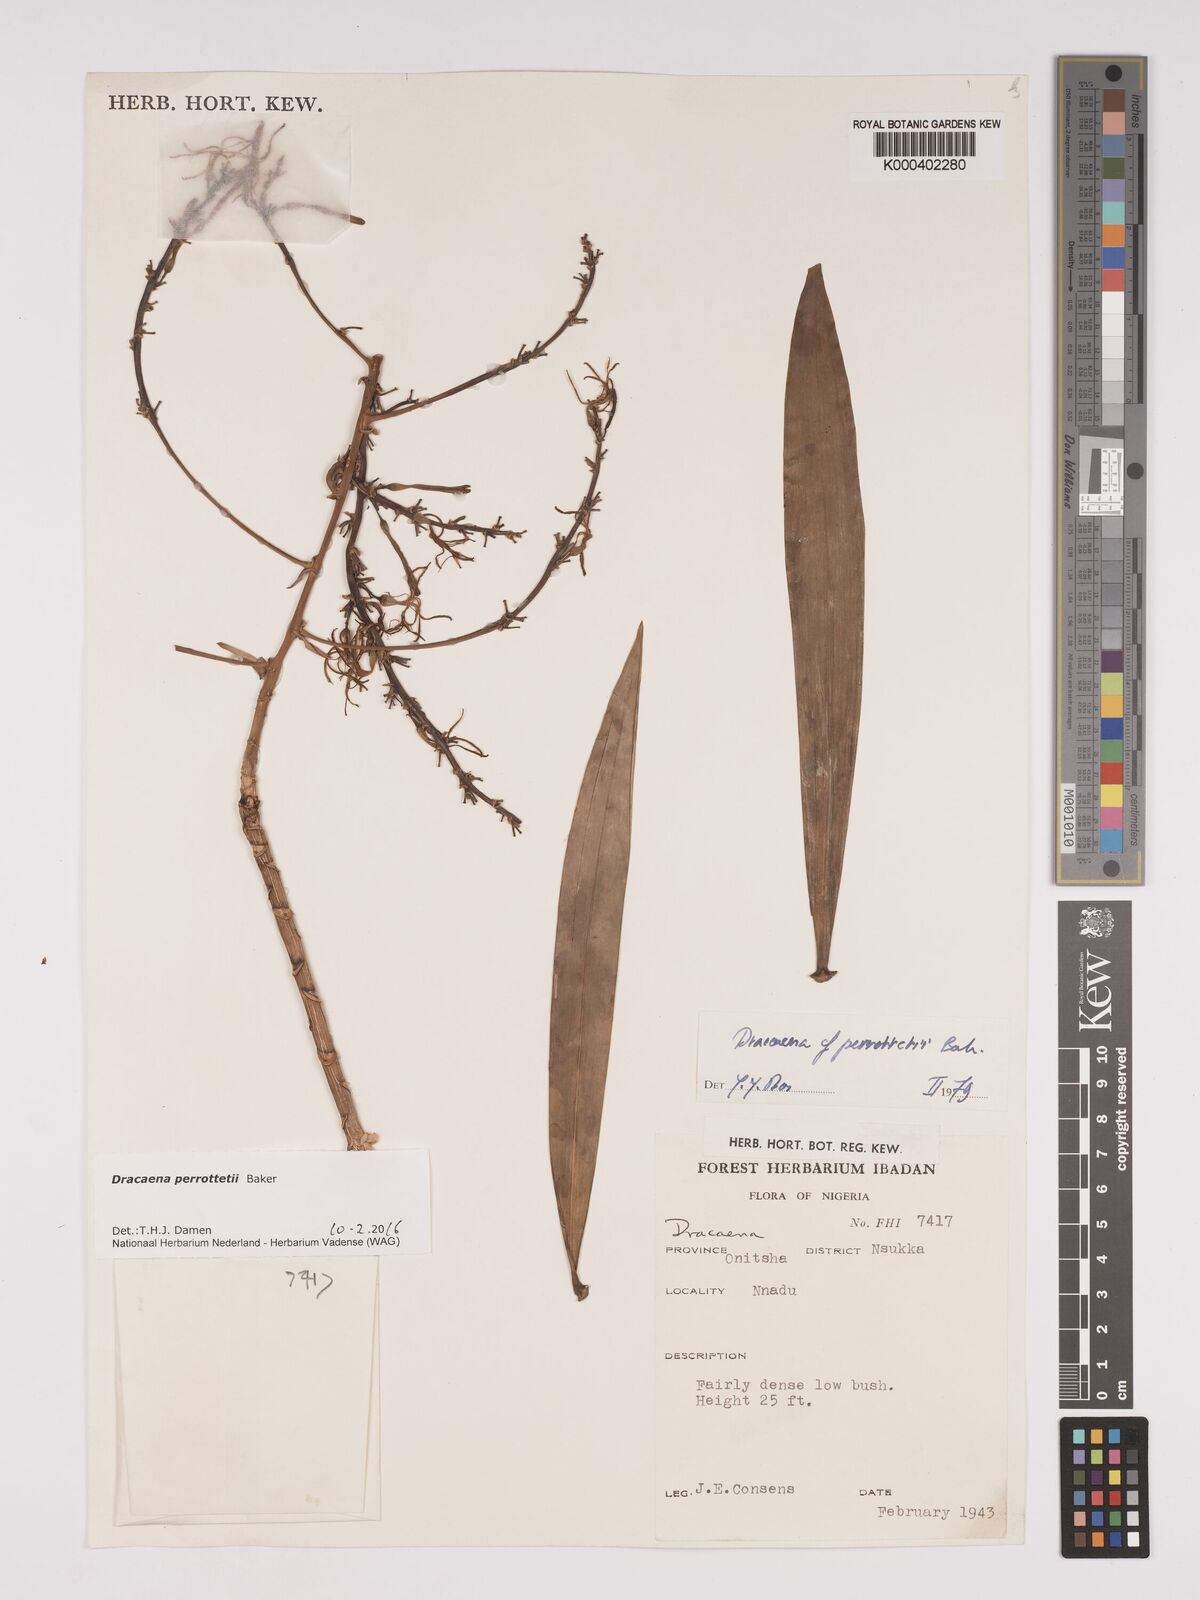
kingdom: Plantae
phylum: Tracheophyta
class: Liliopsida
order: Asparagales
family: Asparagaceae
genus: Dracaena
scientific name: Dracaena perrottetii
